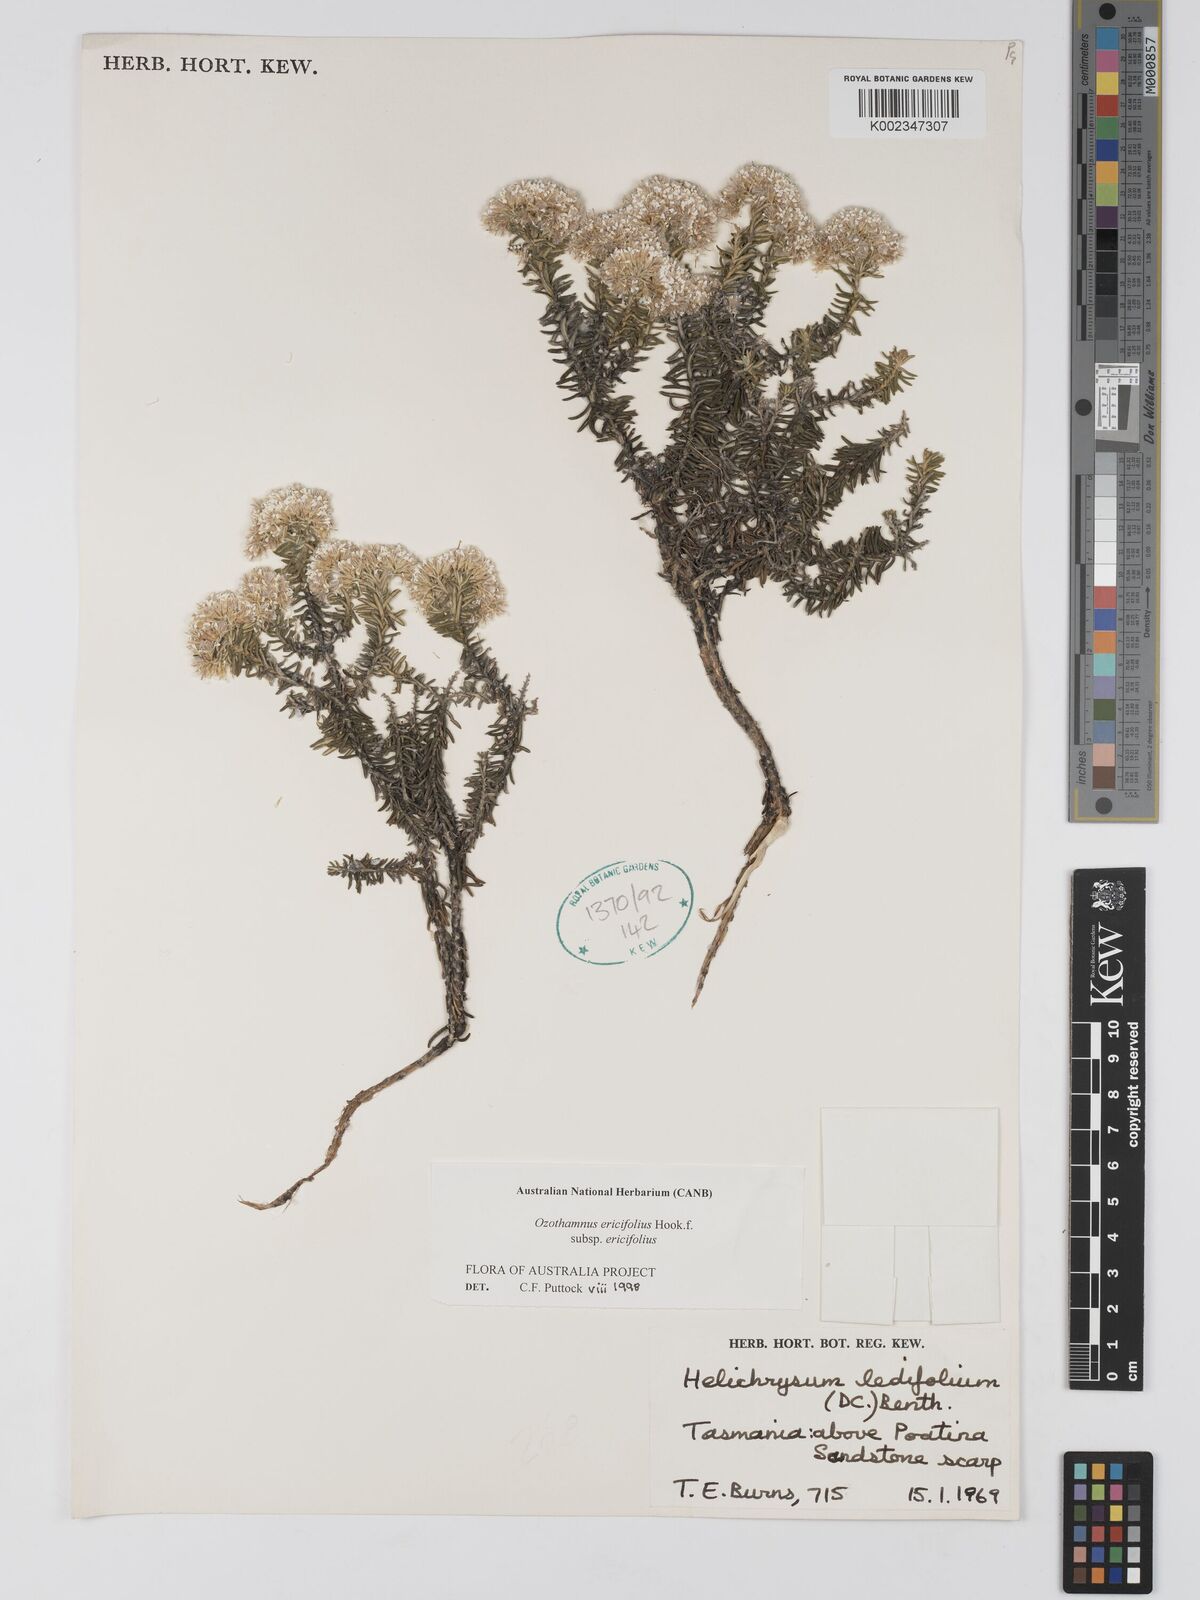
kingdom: Plantae
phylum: Tracheophyta
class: Magnoliopsida
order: Asterales
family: Asteraceae
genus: Ozothamnus
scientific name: Ozothamnus ericifolius
